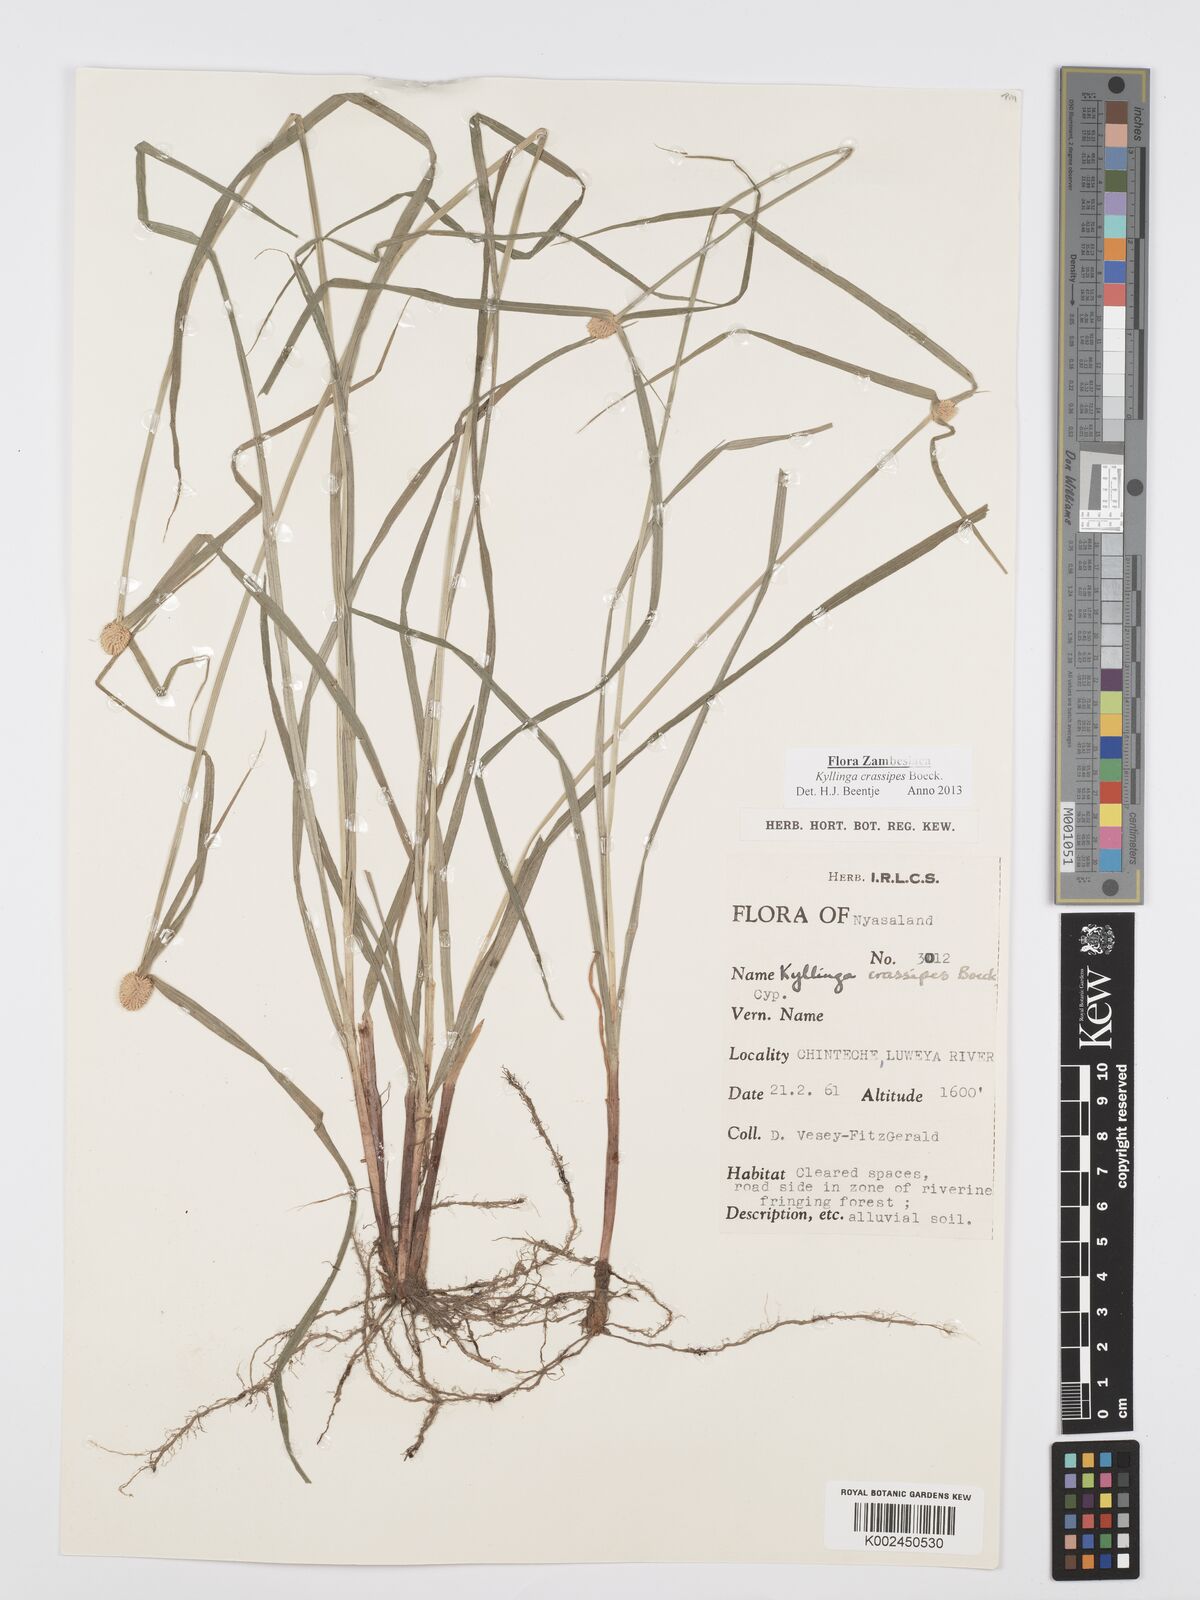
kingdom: Plantae
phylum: Tracheophyta
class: Liliopsida
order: Poales
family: Cyperaceae
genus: Cyperus
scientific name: Cyperus crassipes
